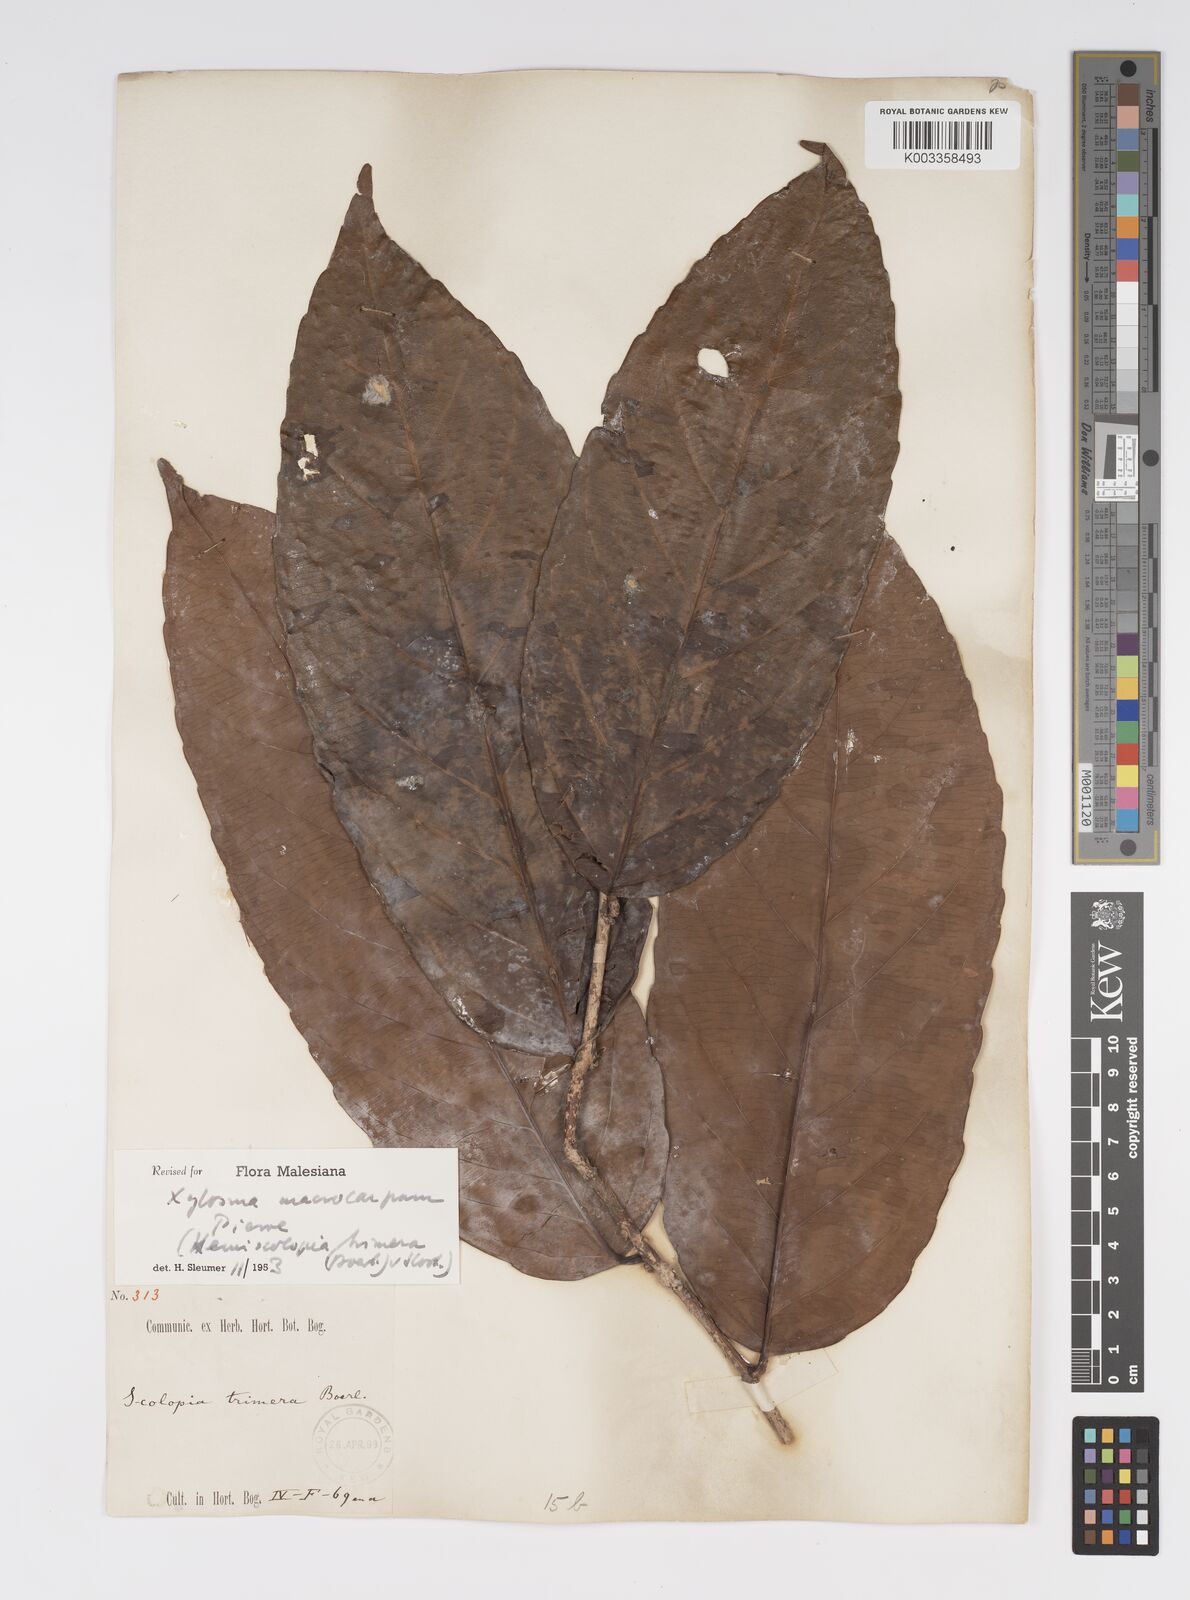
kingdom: Plantae
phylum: Tracheophyta
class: Magnoliopsida
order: Malpighiales
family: Salicaceae
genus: Hemiscolopia
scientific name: Hemiscolopia trimera
